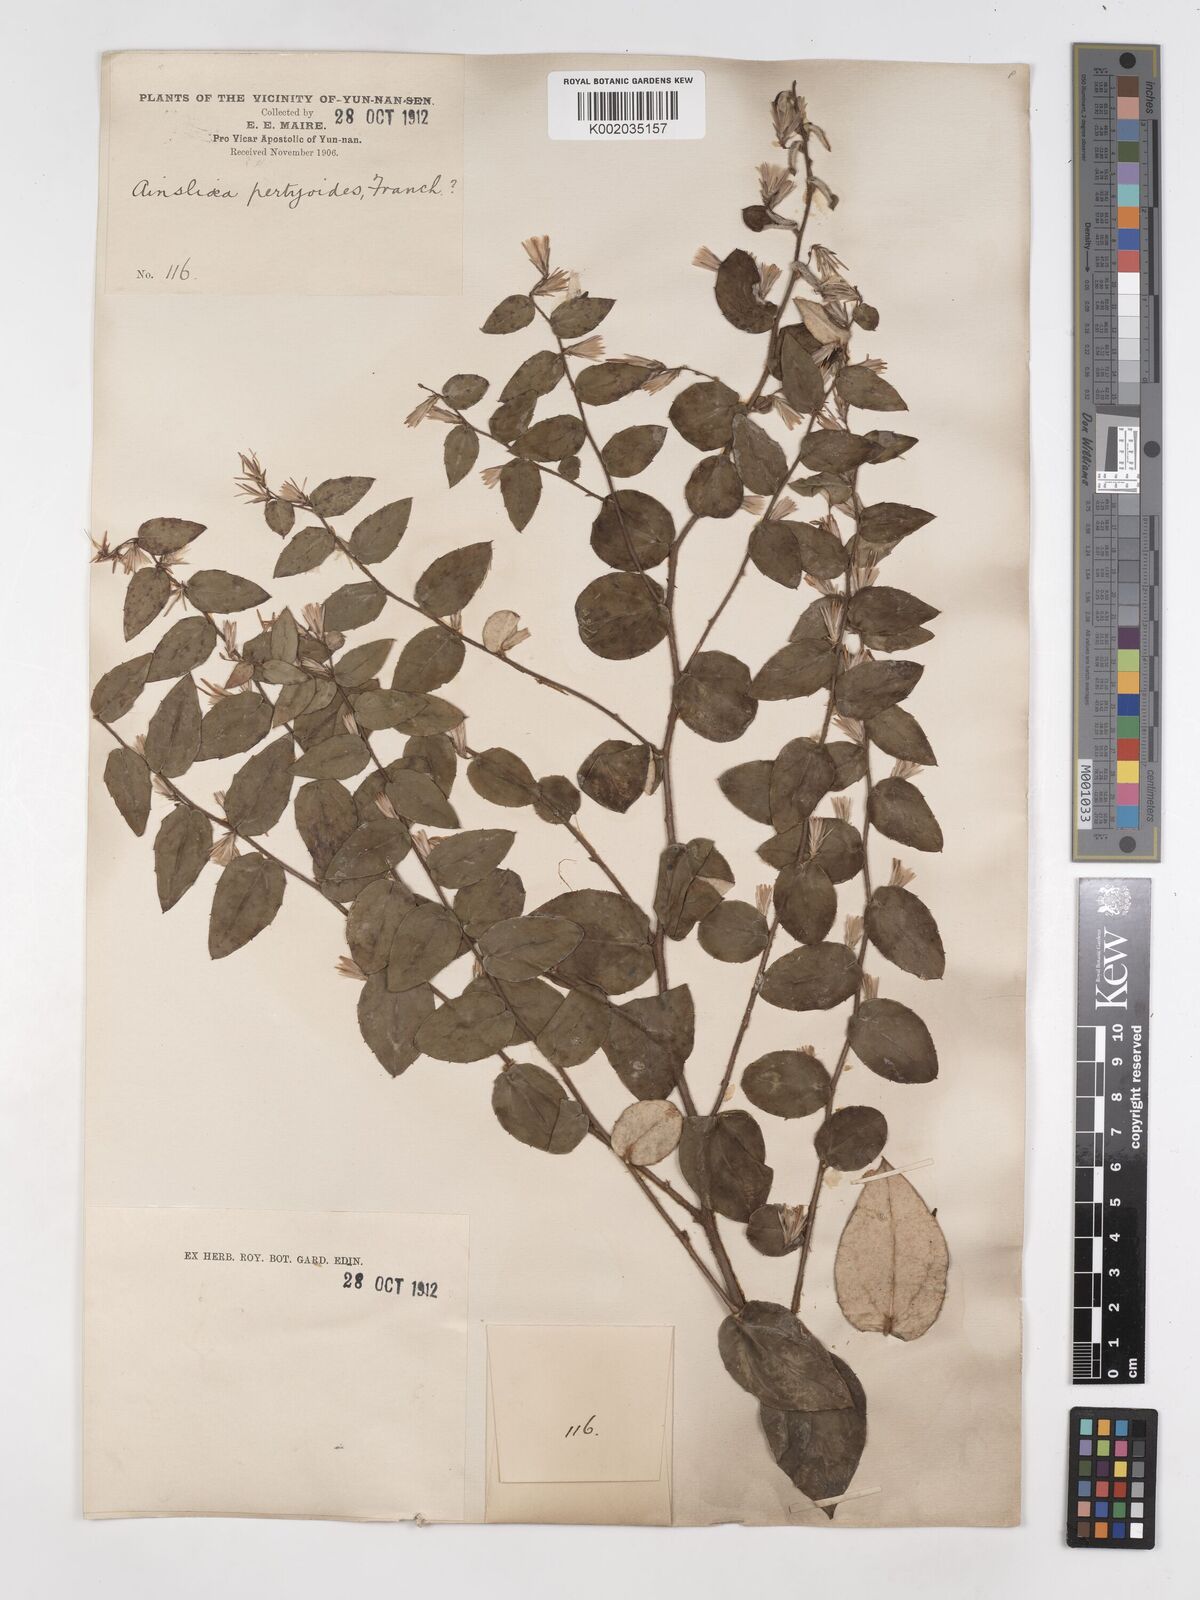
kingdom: Plantae
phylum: Tracheophyta
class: Magnoliopsida
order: Asterales
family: Asteraceae
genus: Ainsliaea
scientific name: Ainsliaea pertyoides
